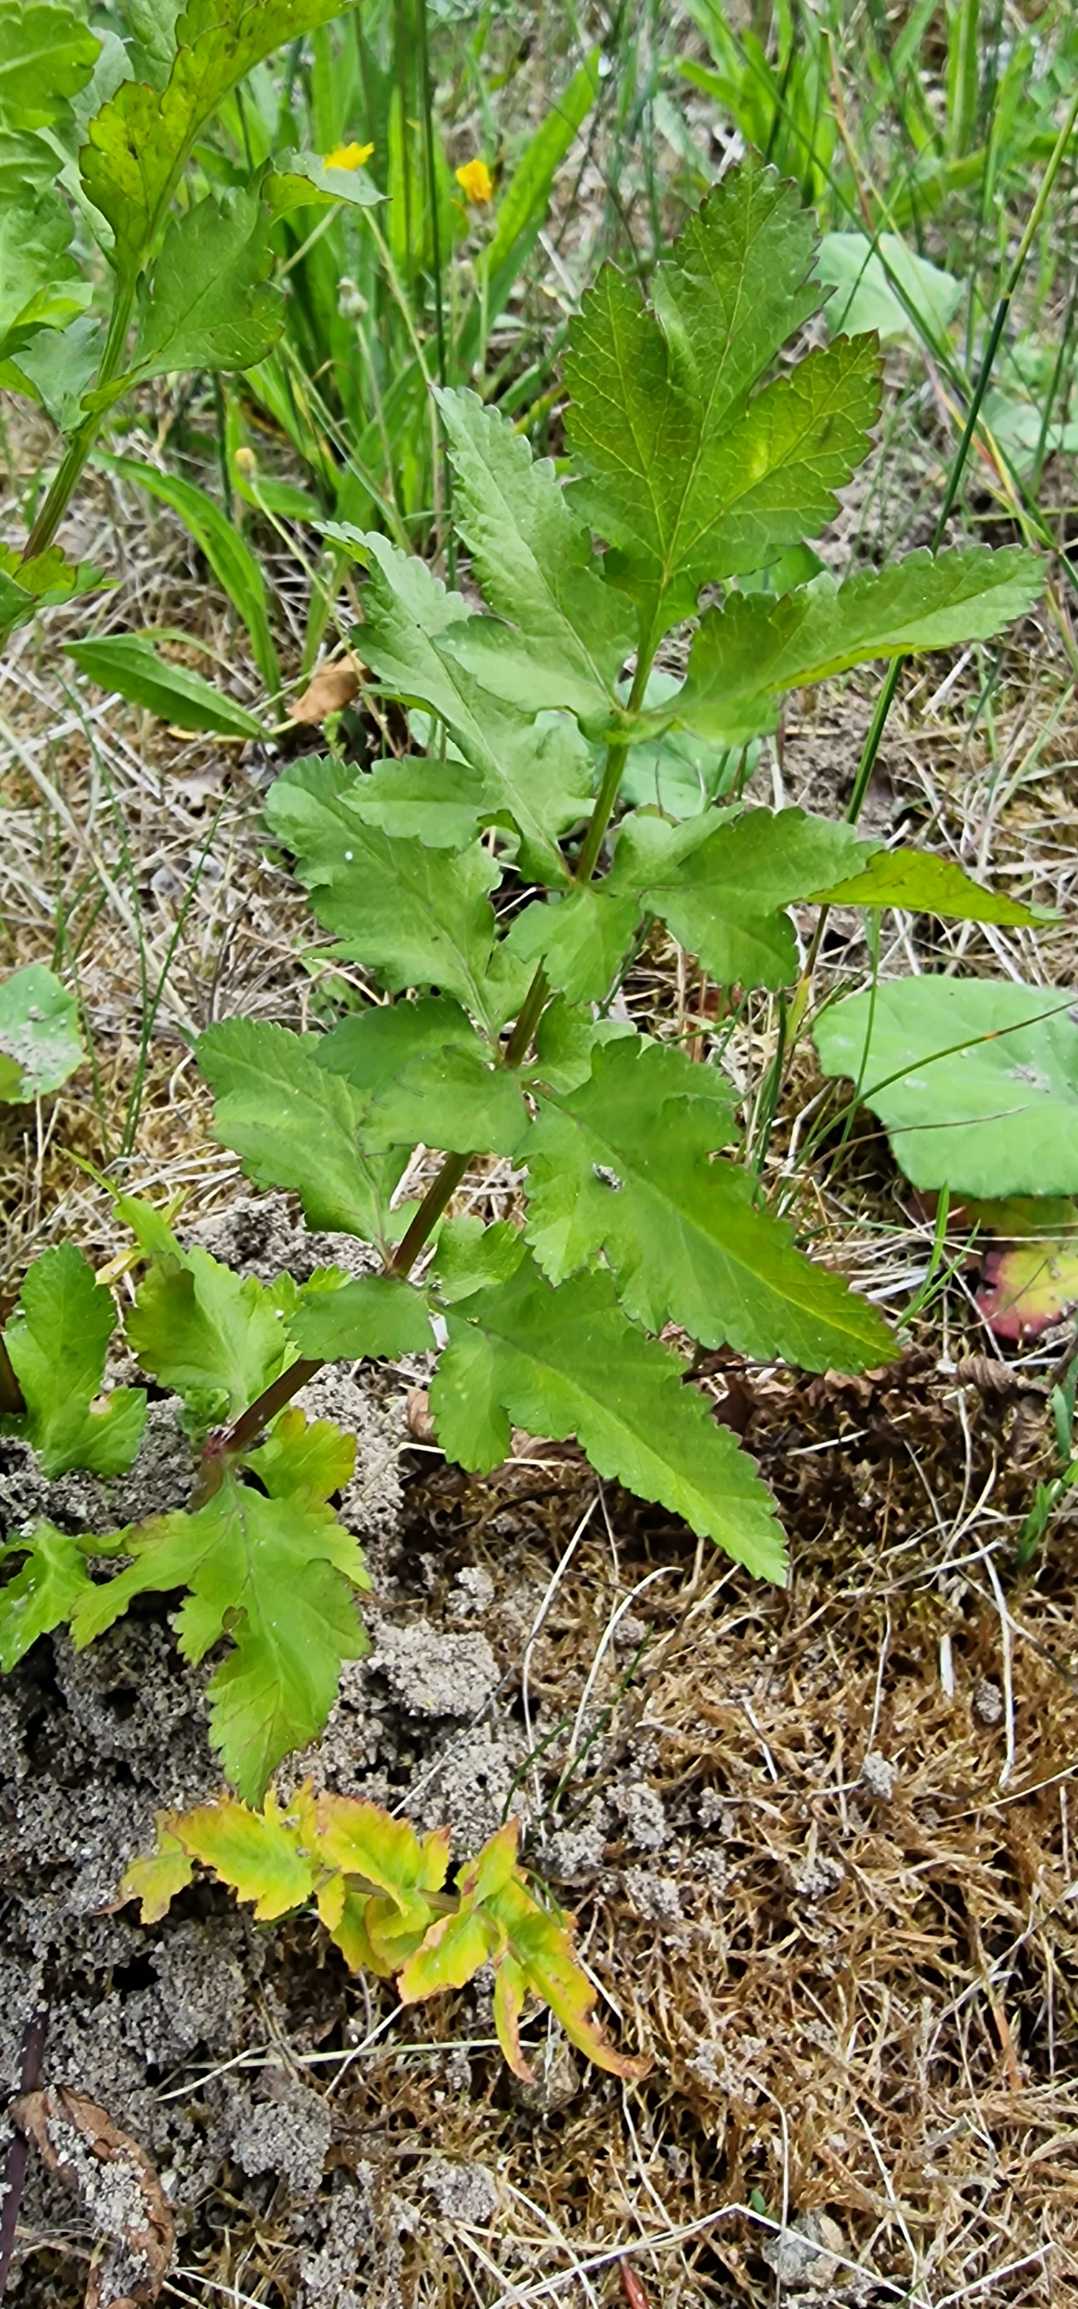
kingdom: Plantae
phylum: Tracheophyta
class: Magnoliopsida
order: Apiales
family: Apiaceae
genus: Pastinaca
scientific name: Pastinaca sativa
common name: Pastinak
